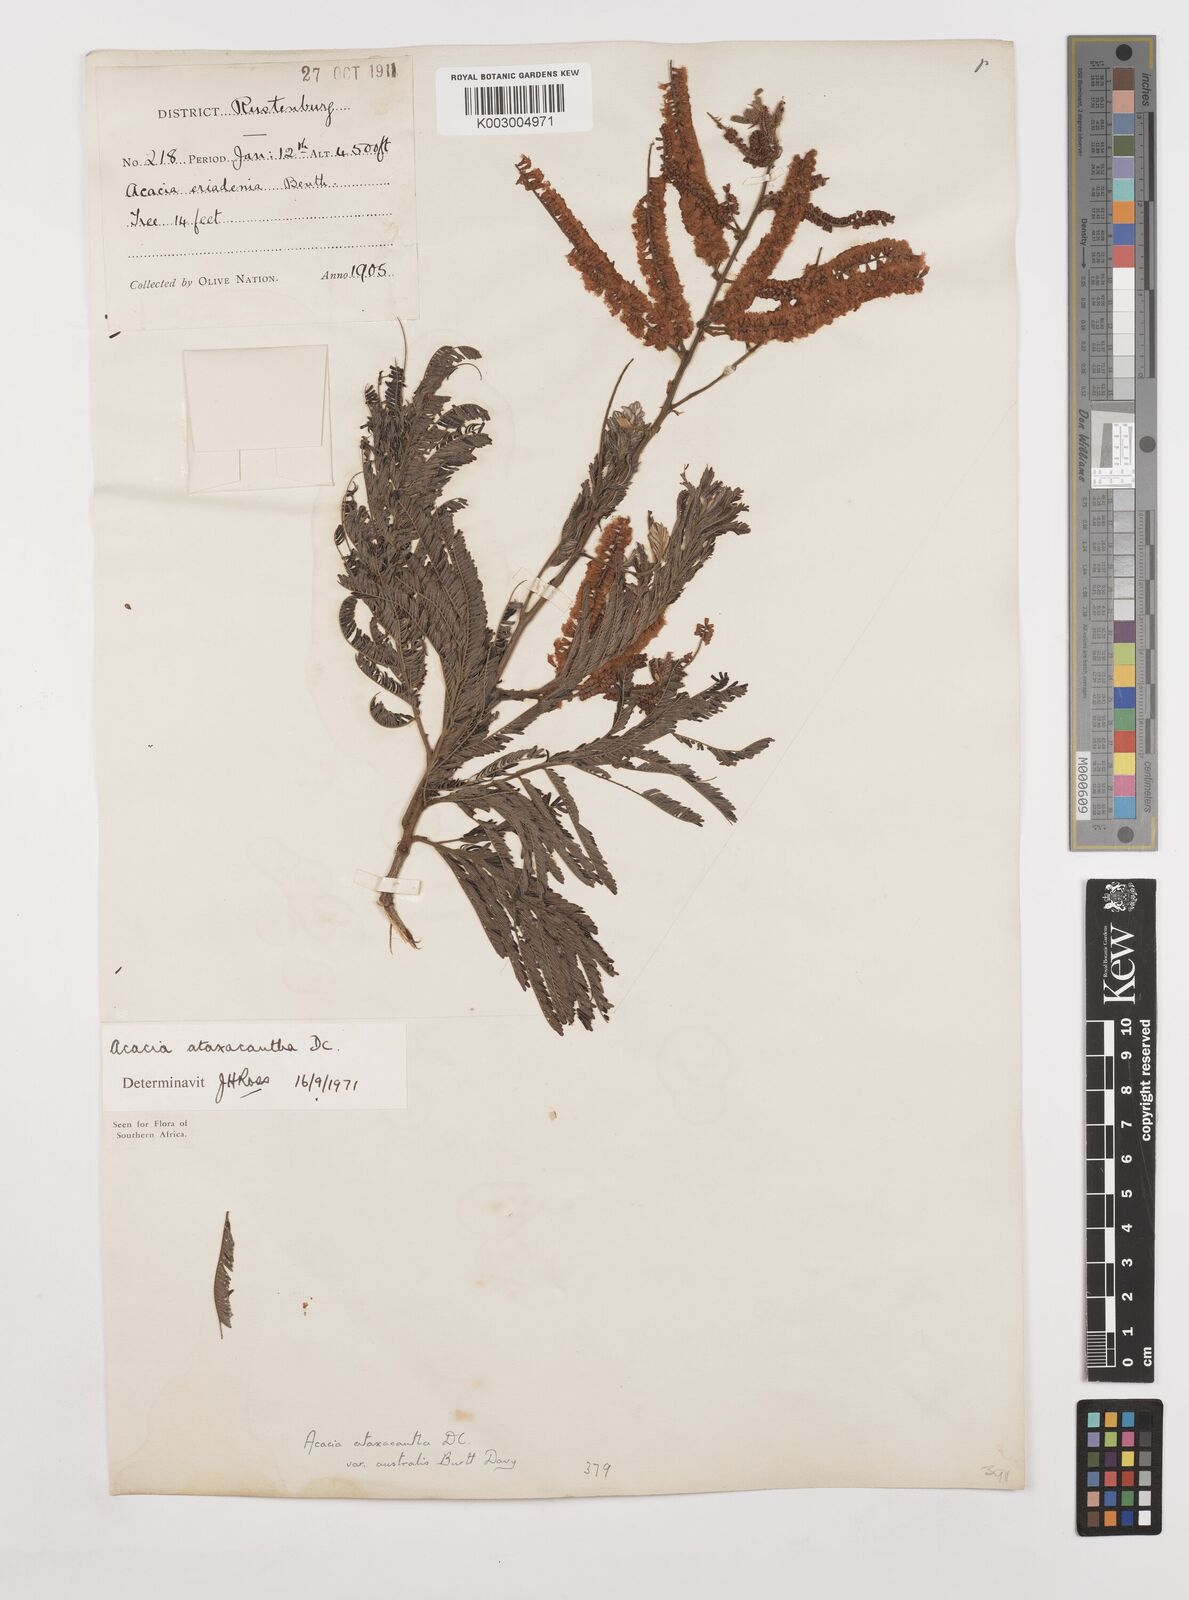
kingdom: Plantae
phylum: Tracheophyta
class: Magnoliopsida
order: Fabales
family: Fabaceae
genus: Senegalia
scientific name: Senegalia ataxacantha
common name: Flame acacia
